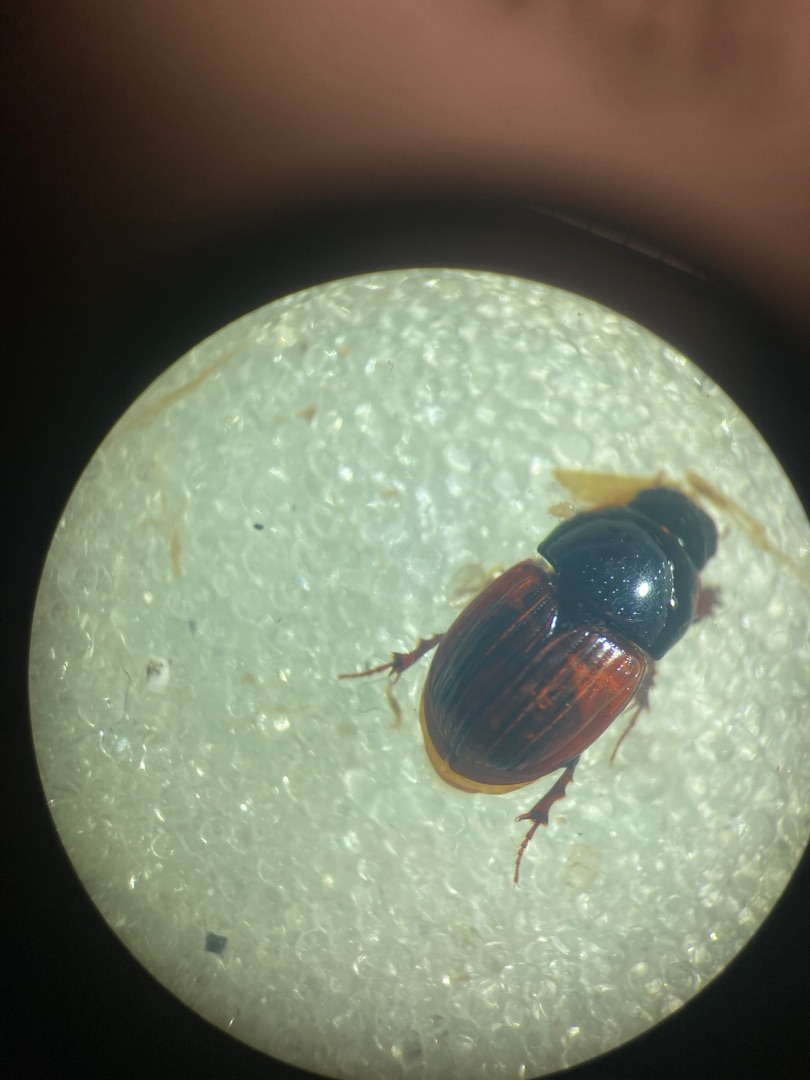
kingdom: Animalia
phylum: Arthropoda
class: Insecta
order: Coleoptera
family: Scarabaeidae
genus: Rhodaphodius
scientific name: Rhodaphodius foetens
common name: Rødbuget møgbille
